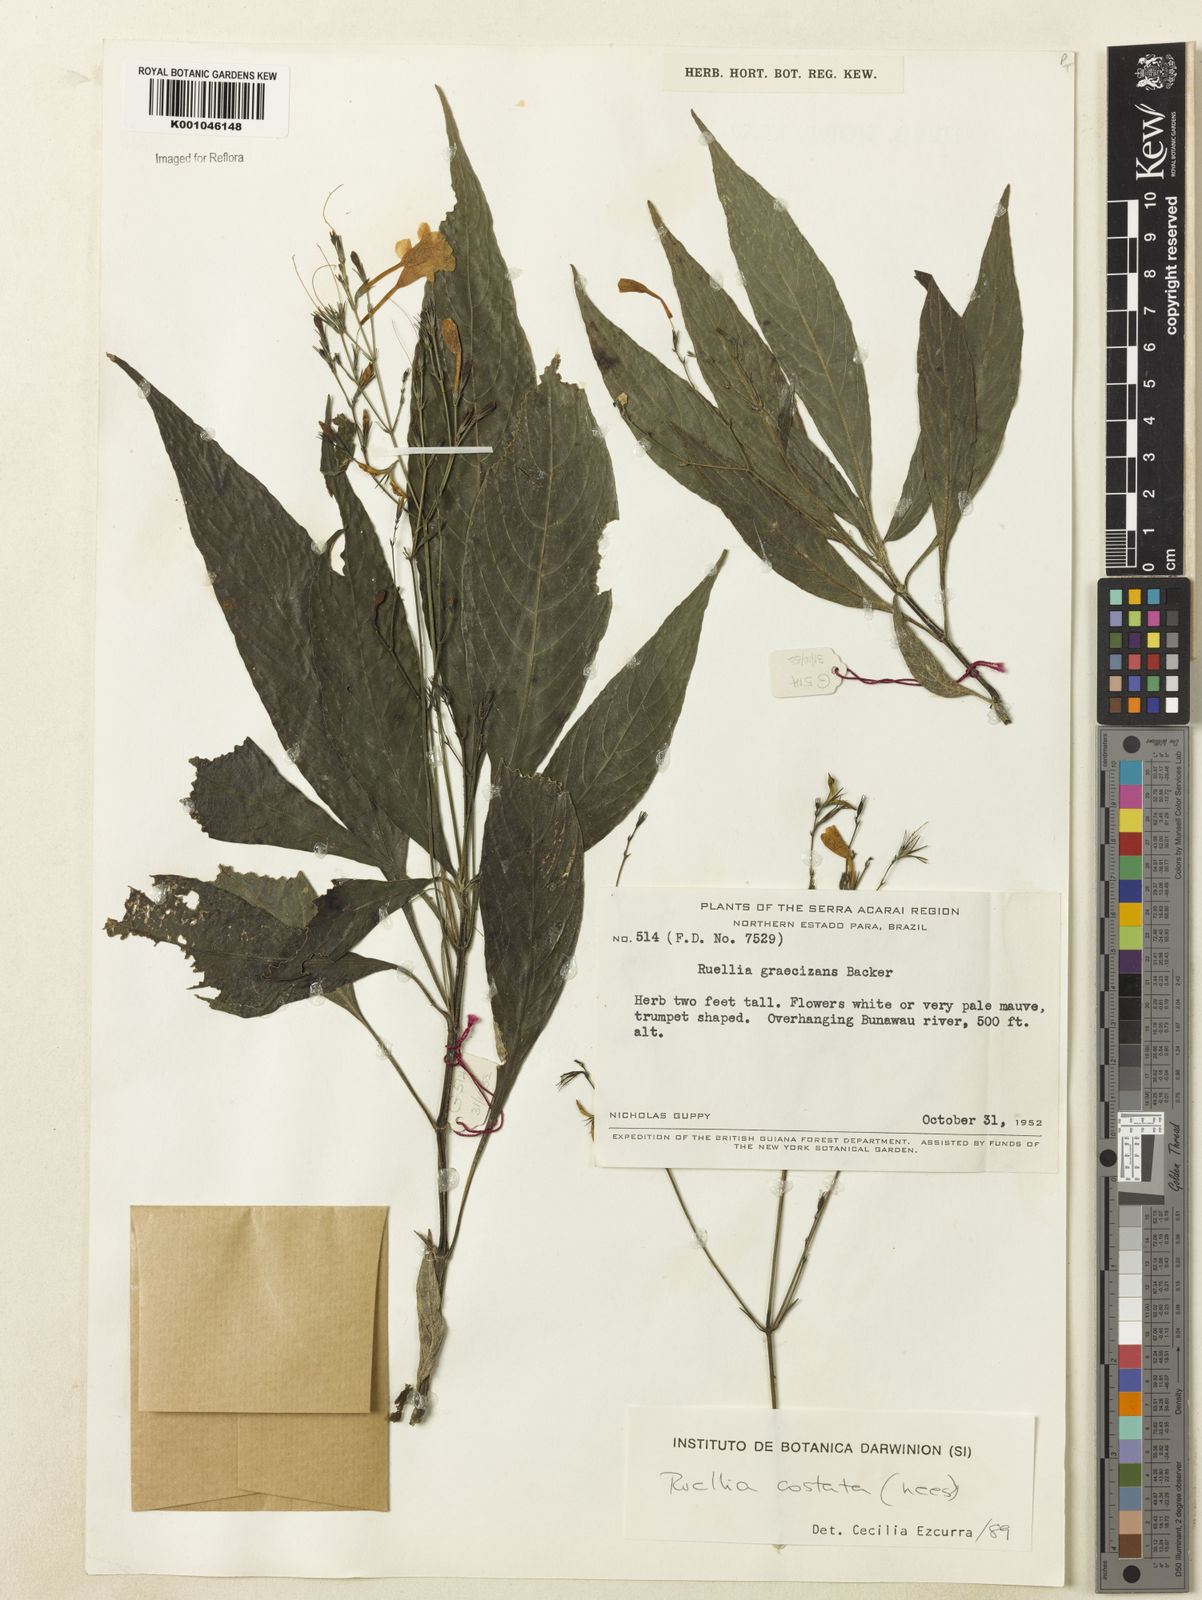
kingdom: Plantae
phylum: Tracheophyta
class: Magnoliopsida
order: Lamiales
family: Acanthaceae
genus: Ruellia
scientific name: Ruellia costata
